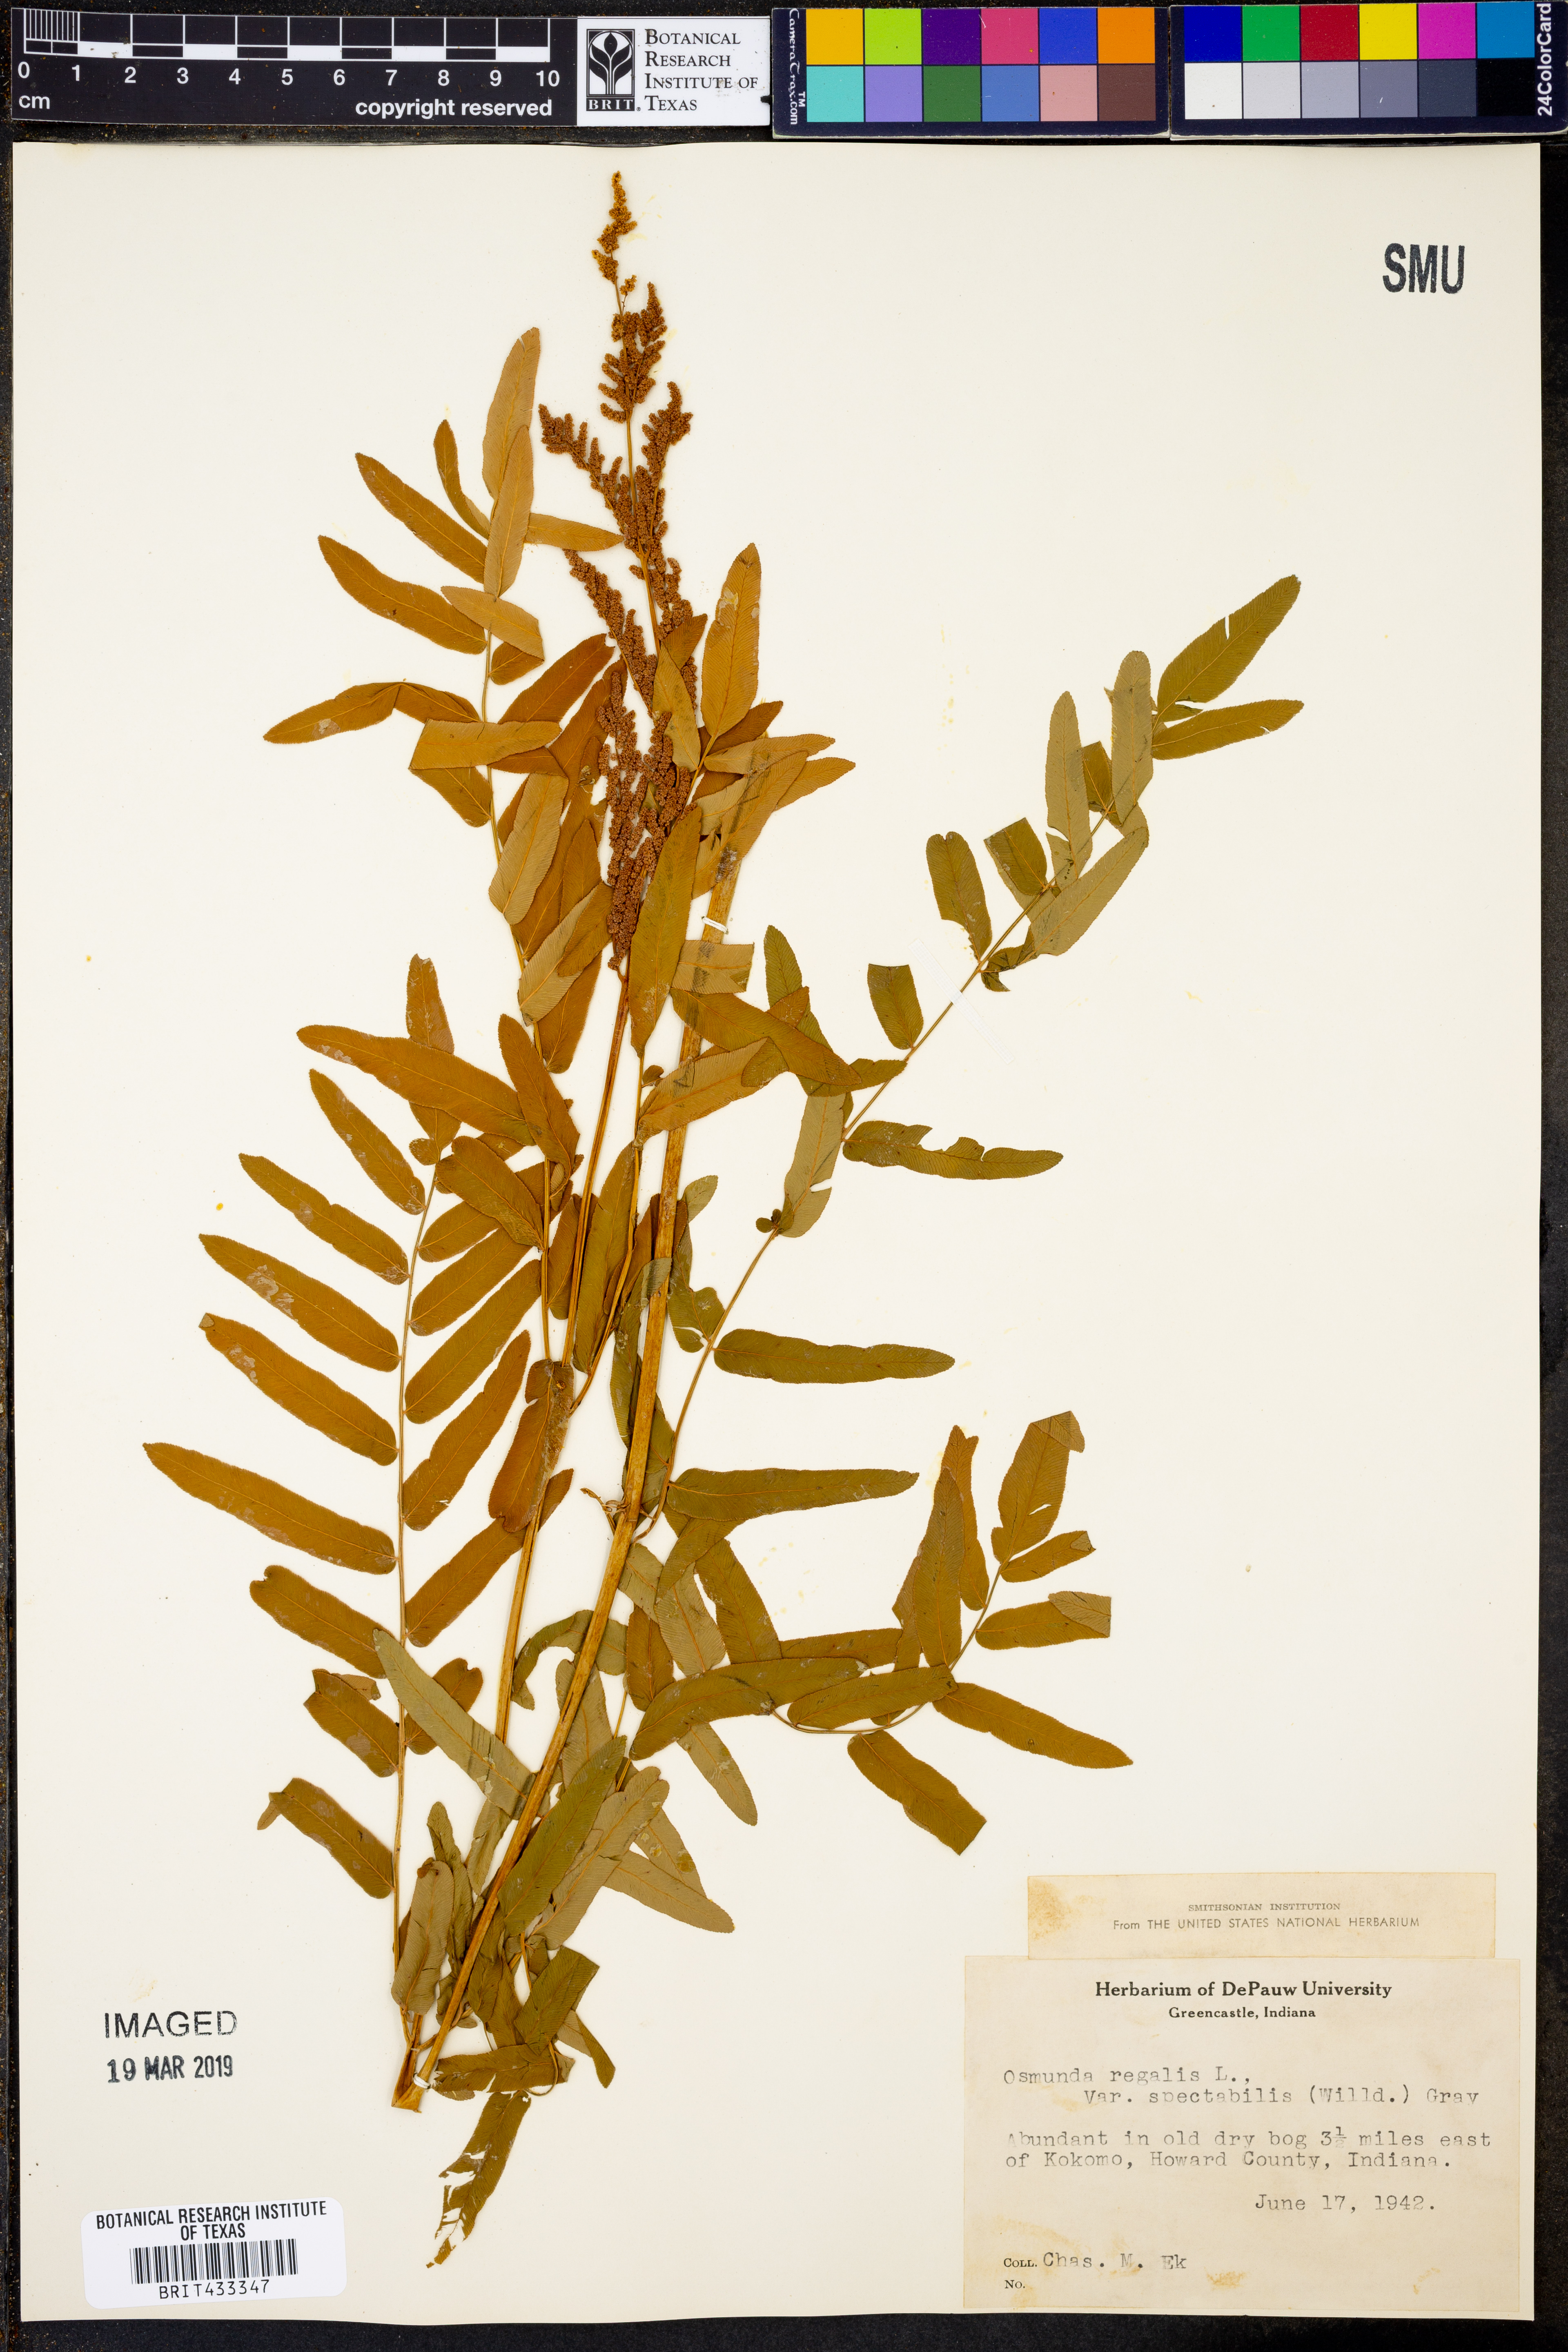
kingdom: Plantae
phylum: Tracheophyta
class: Polypodiopsida
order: Osmundales
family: Osmundaceae
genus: Osmunda
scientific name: Osmunda spectabilis
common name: American royal fern
